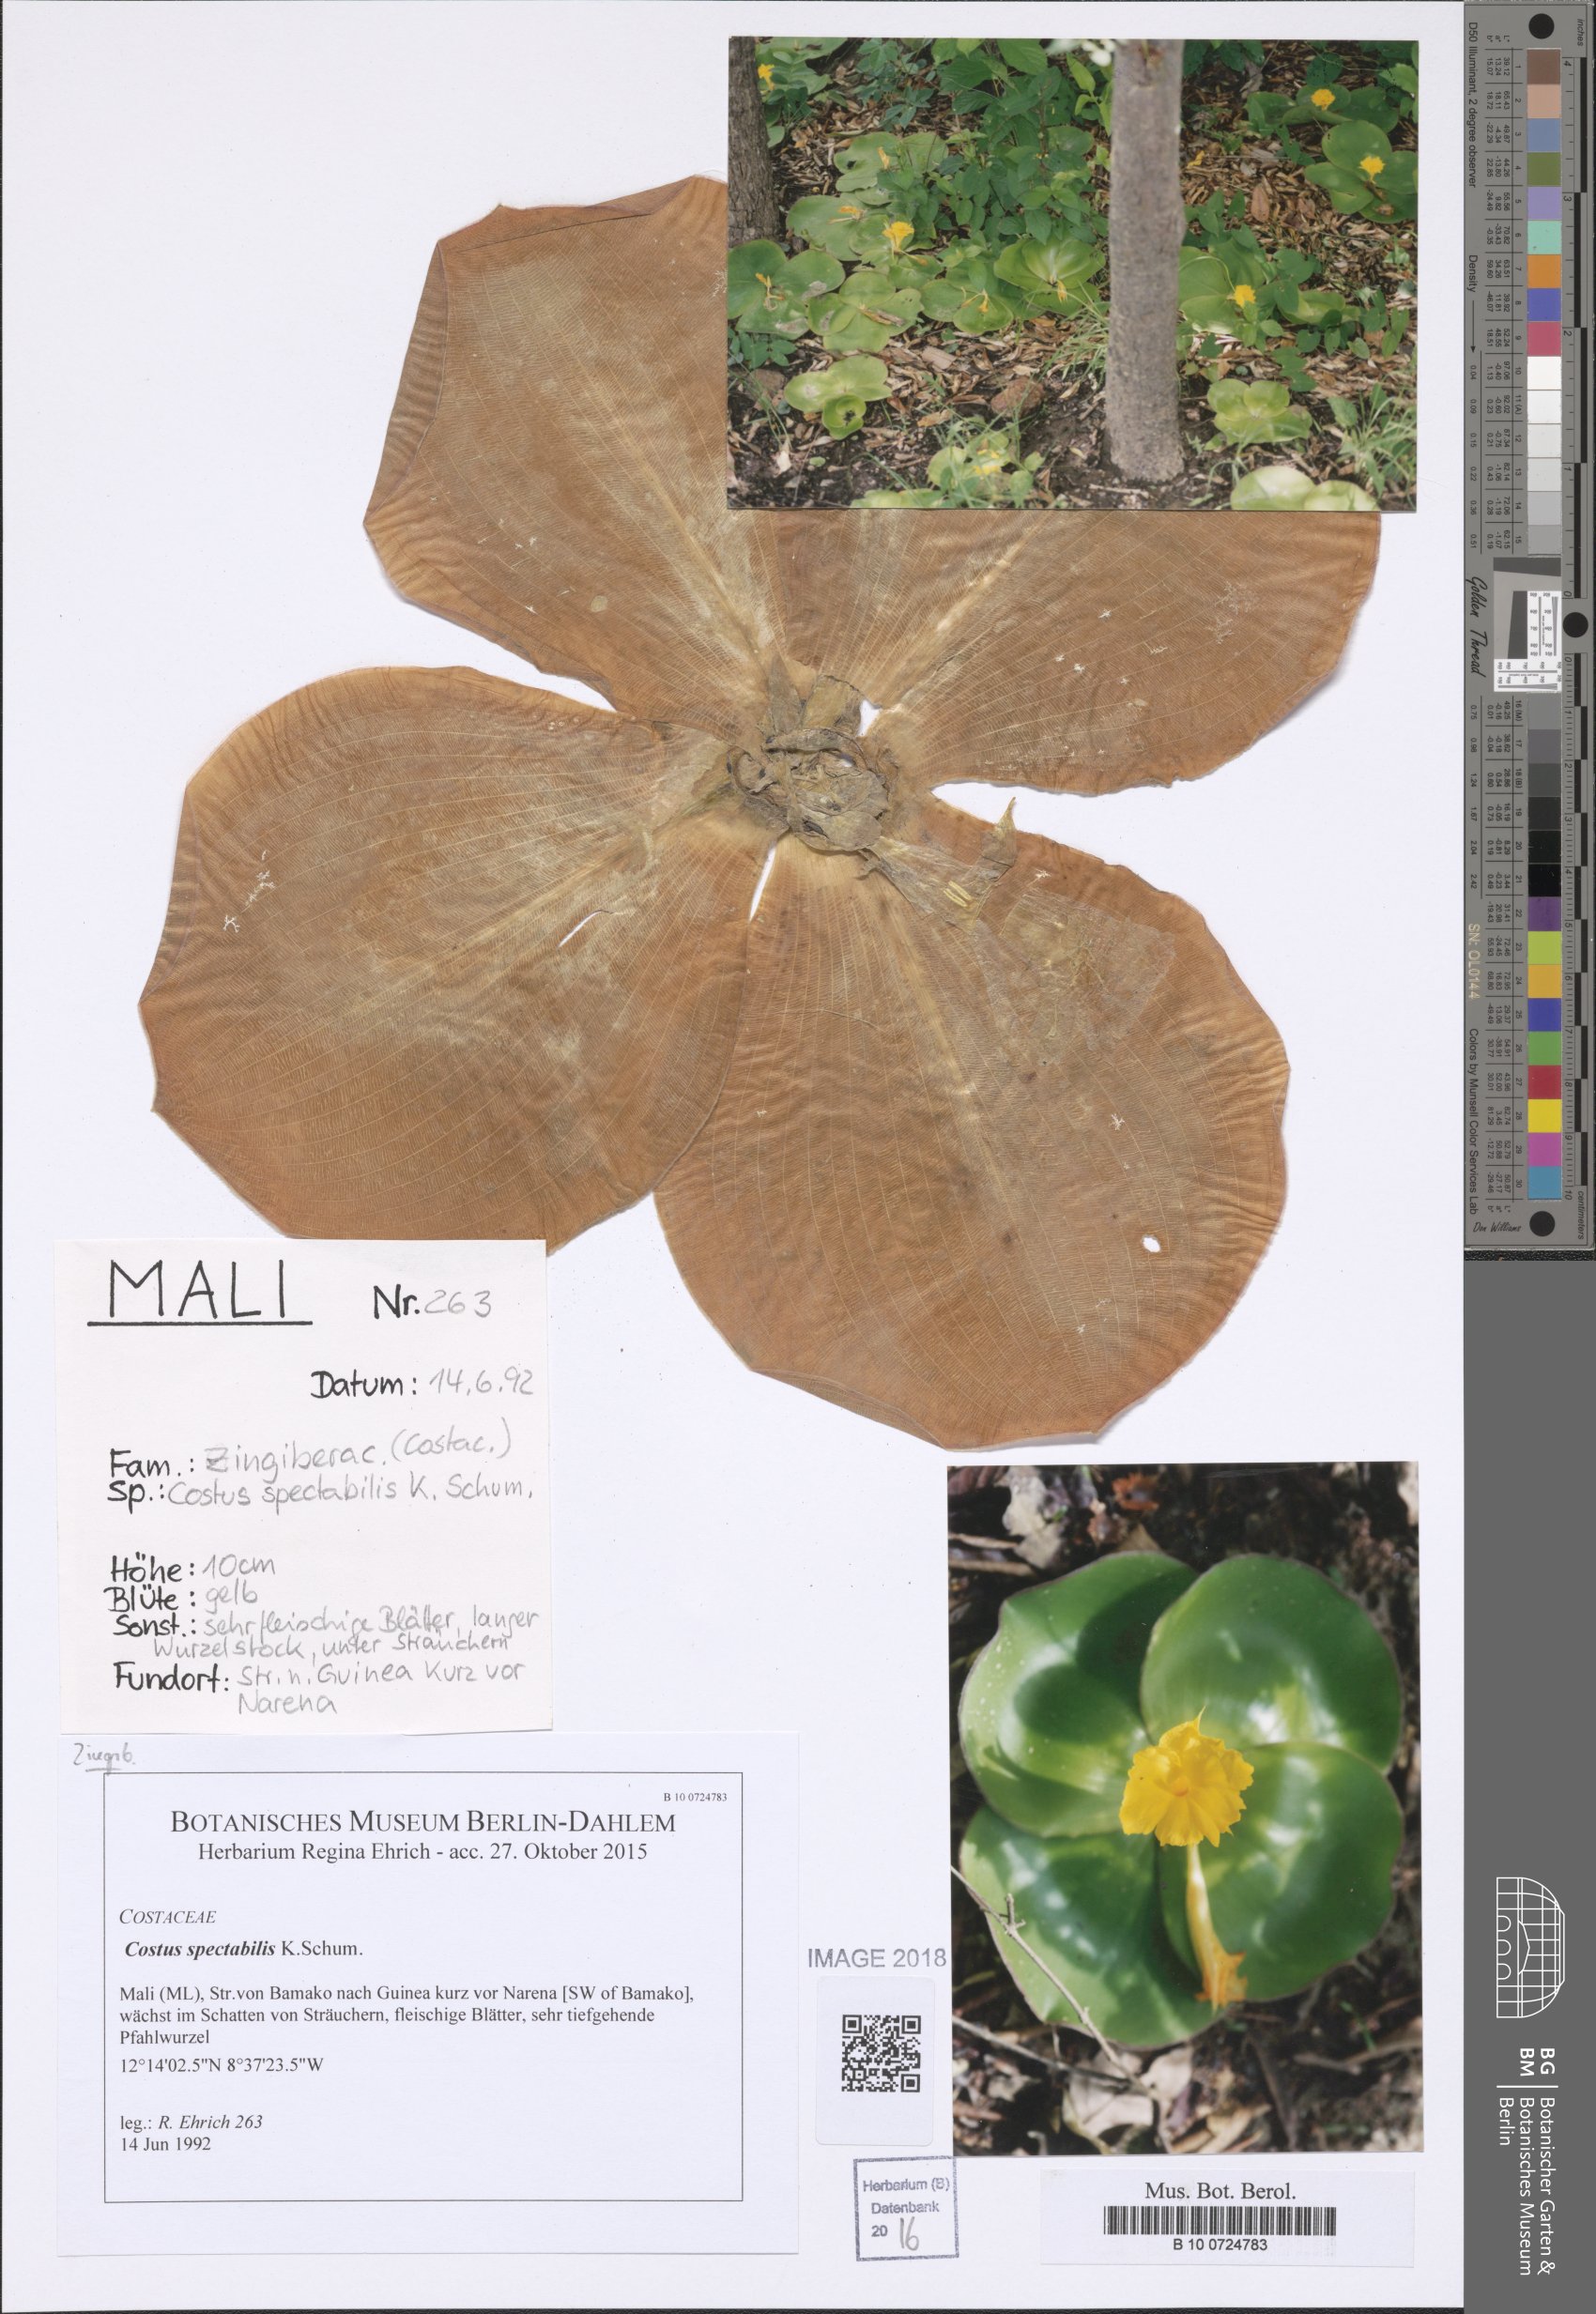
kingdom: Plantae
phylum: Tracheophyta
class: Liliopsida
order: Zingiberales
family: Costaceae
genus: Costus
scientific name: Costus spectabilis
